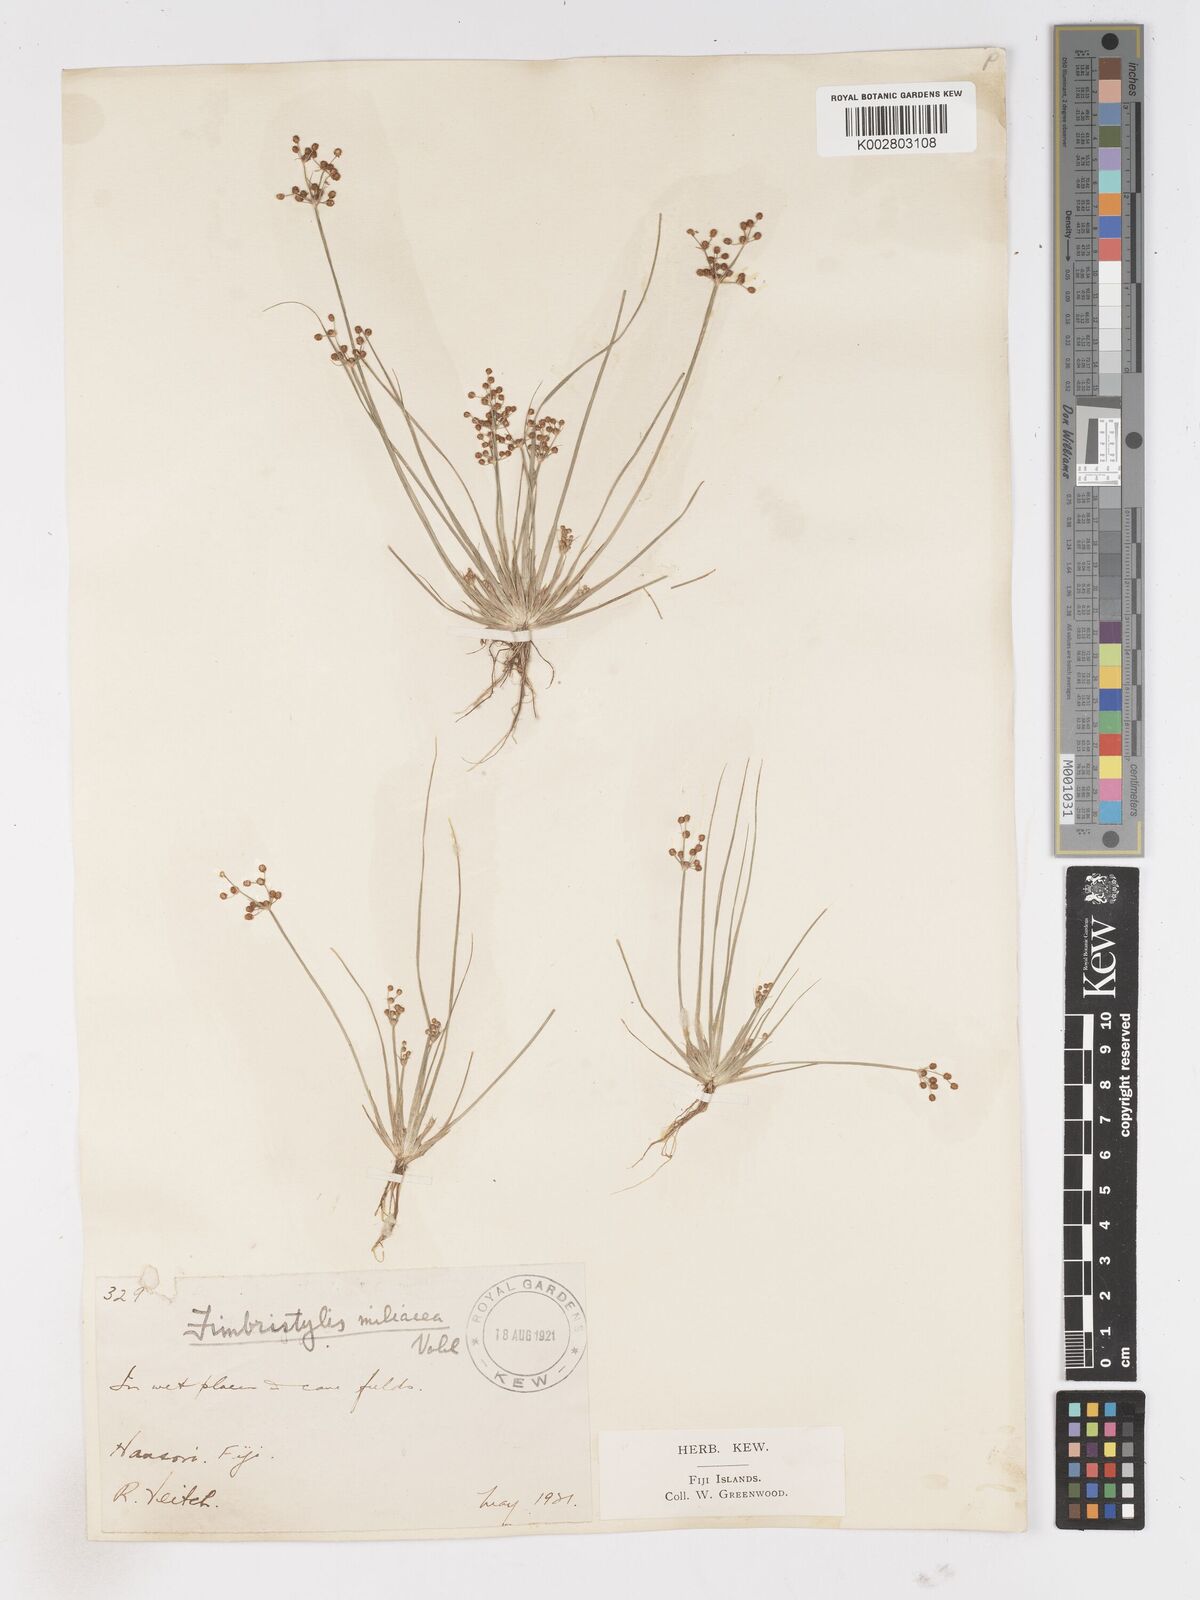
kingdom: Plantae
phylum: Tracheophyta
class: Liliopsida
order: Poales
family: Cyperaceae
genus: Fimbristylis
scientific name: Fimbristylis littoralis
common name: Fimbry
